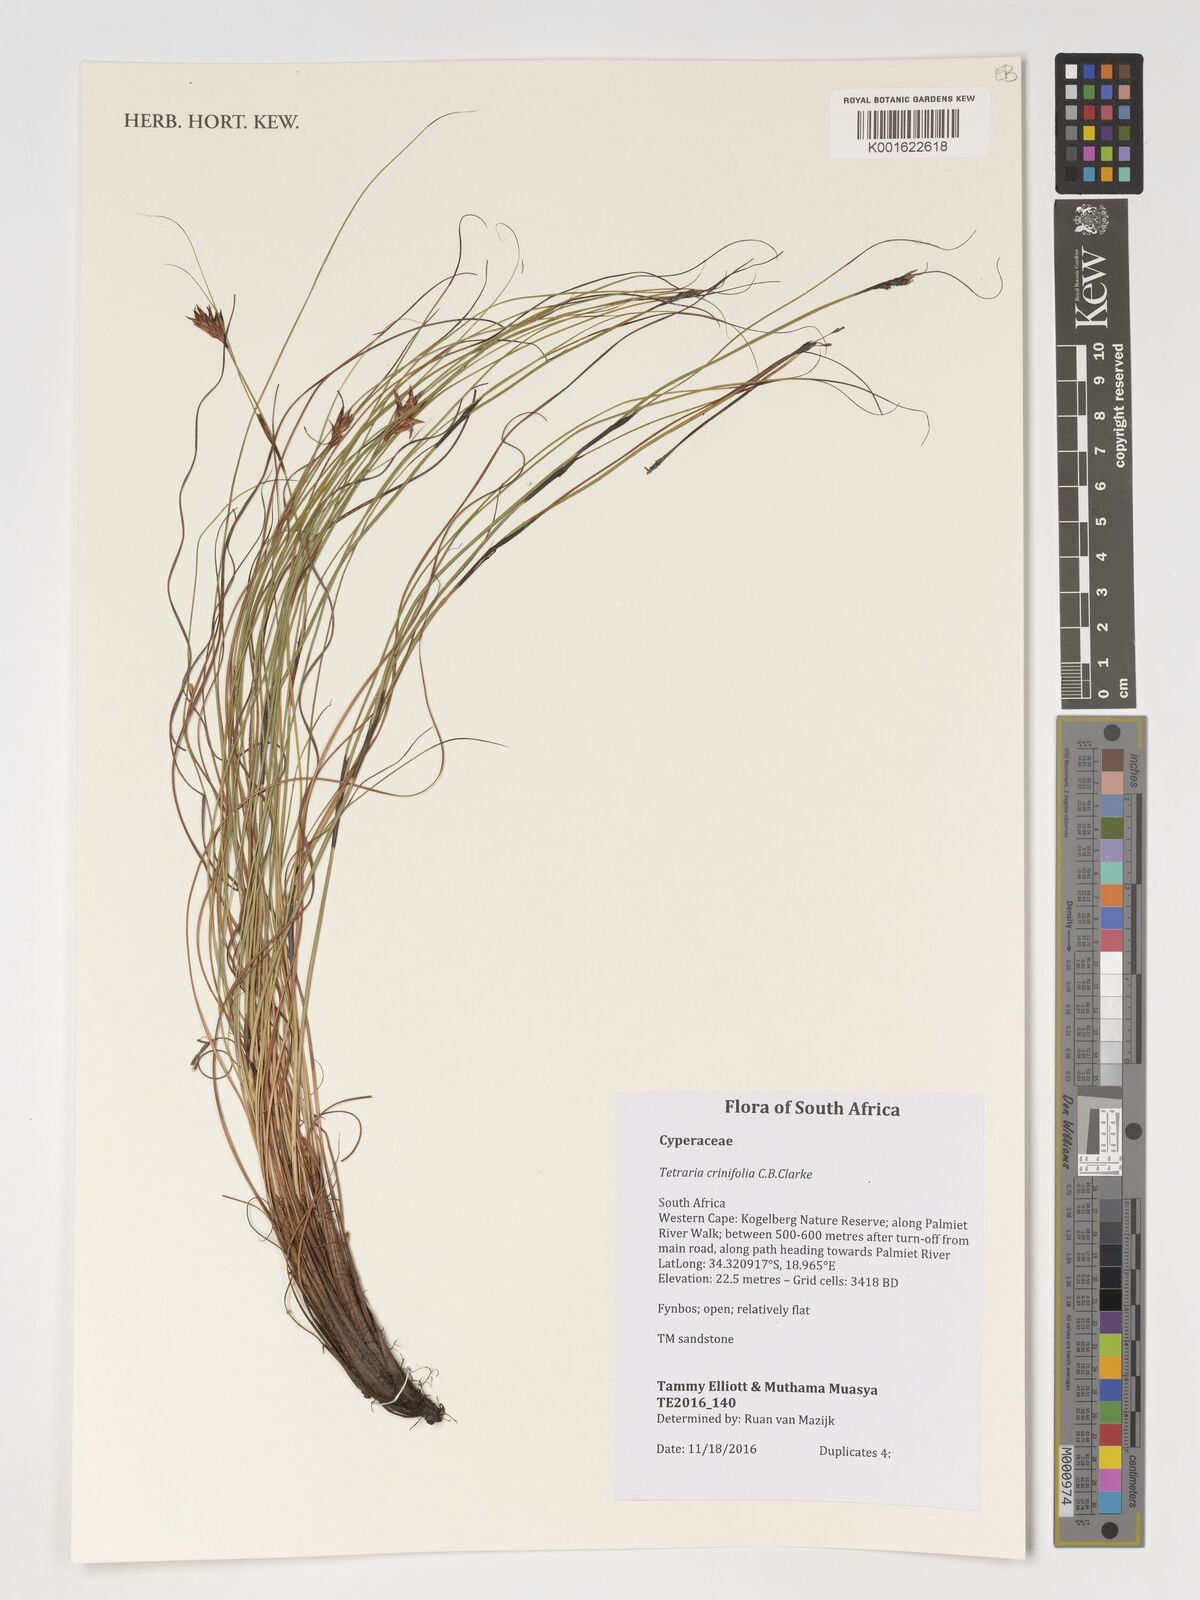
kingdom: Plantae
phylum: Tracheophyta
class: Liliopsida
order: Poales
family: Cyperaceae
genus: Tetraria
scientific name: Tetraria crinifolia
